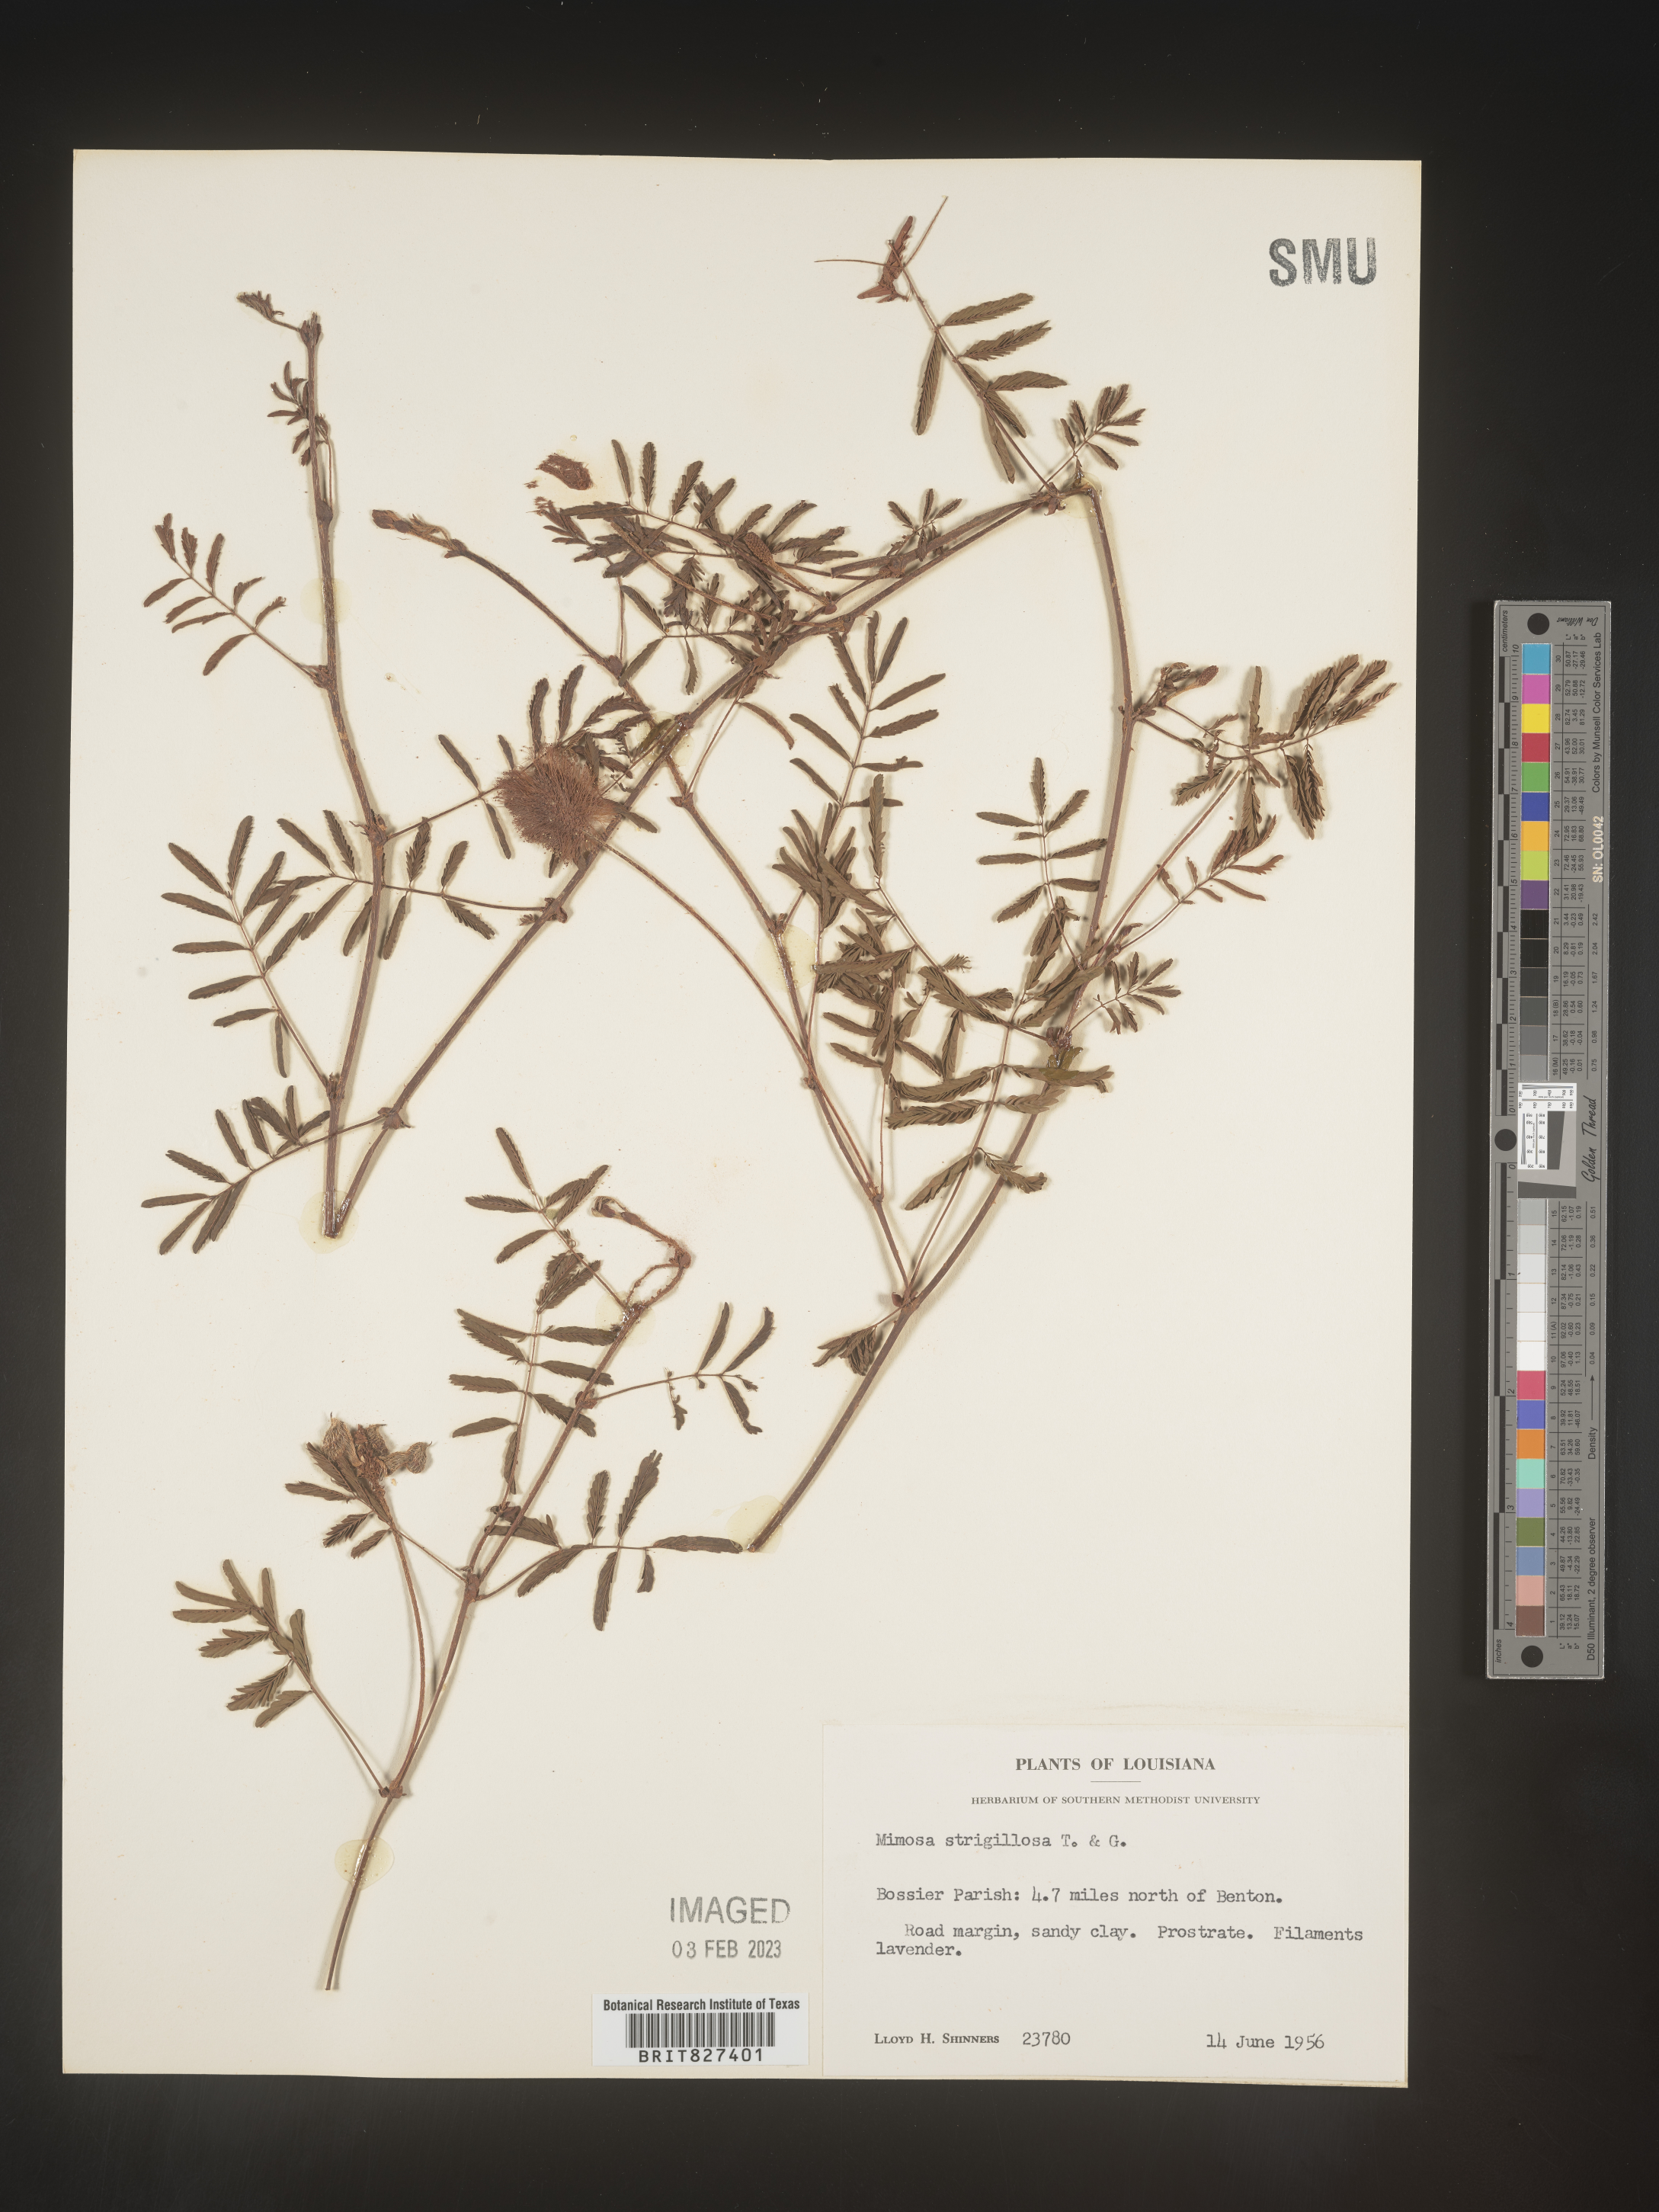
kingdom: Plantae
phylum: Tracheophyta
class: Magnoliopsida
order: Fabales
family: Fabaceae
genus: Mimosa
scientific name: Mimosa strigillosa
